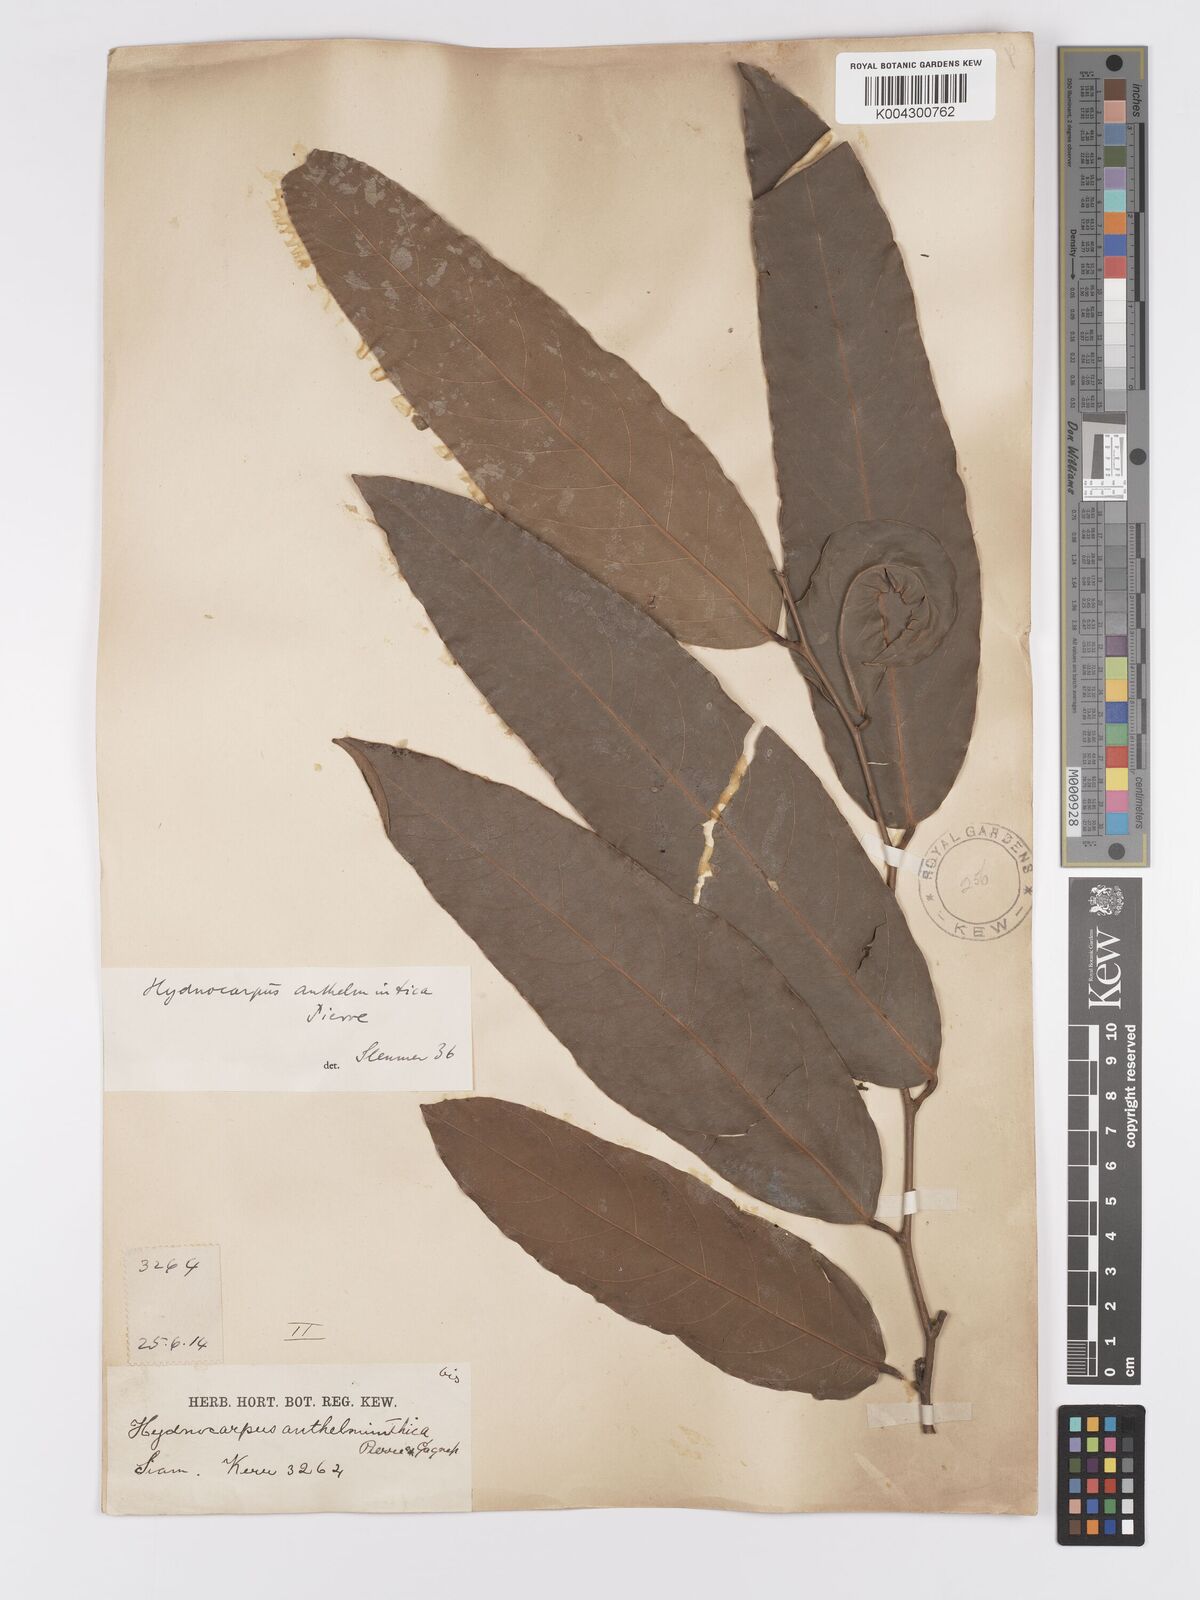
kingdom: Plantae
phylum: Tracheophyta
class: Magnoliopsida
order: Malpighiales
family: Achariaceae
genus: Hydnocarpus
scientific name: Hydnocarpus castaneus
